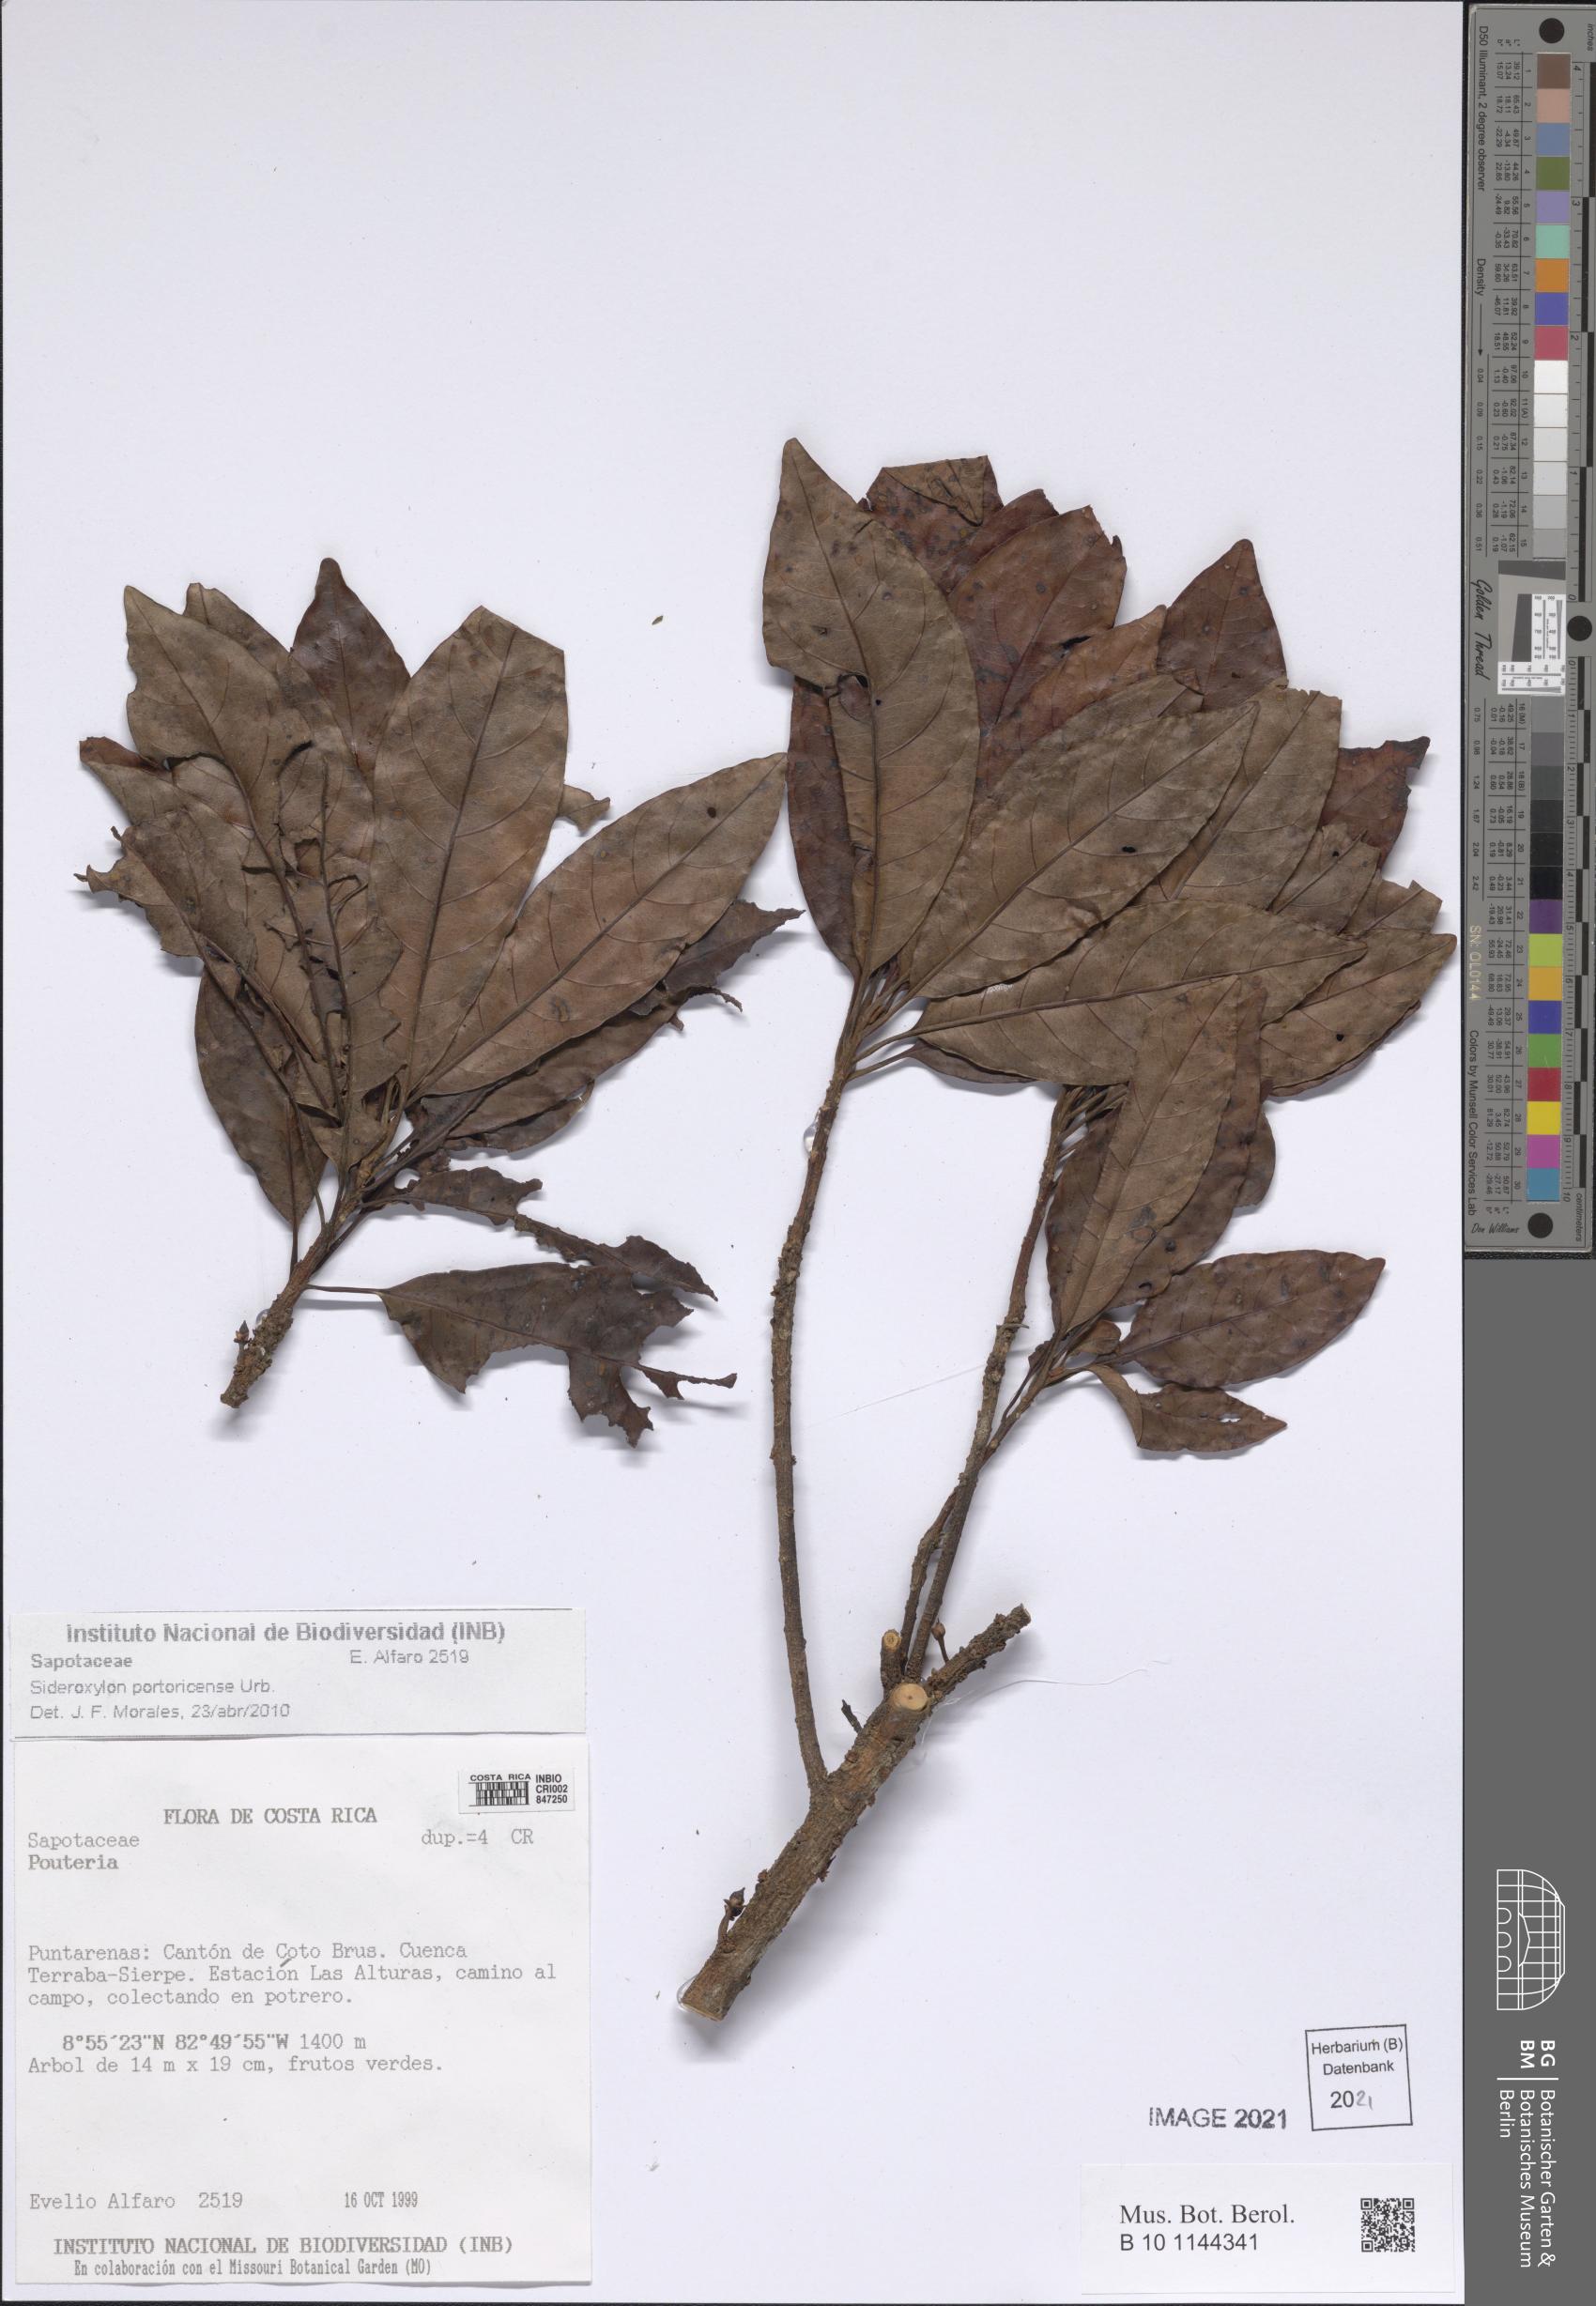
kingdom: Plantae
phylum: Tracheophyta
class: Magnoliopsida
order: Ericales
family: Sapotaceae
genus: Sideroxylon
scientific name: Sideroxylon portoricense
